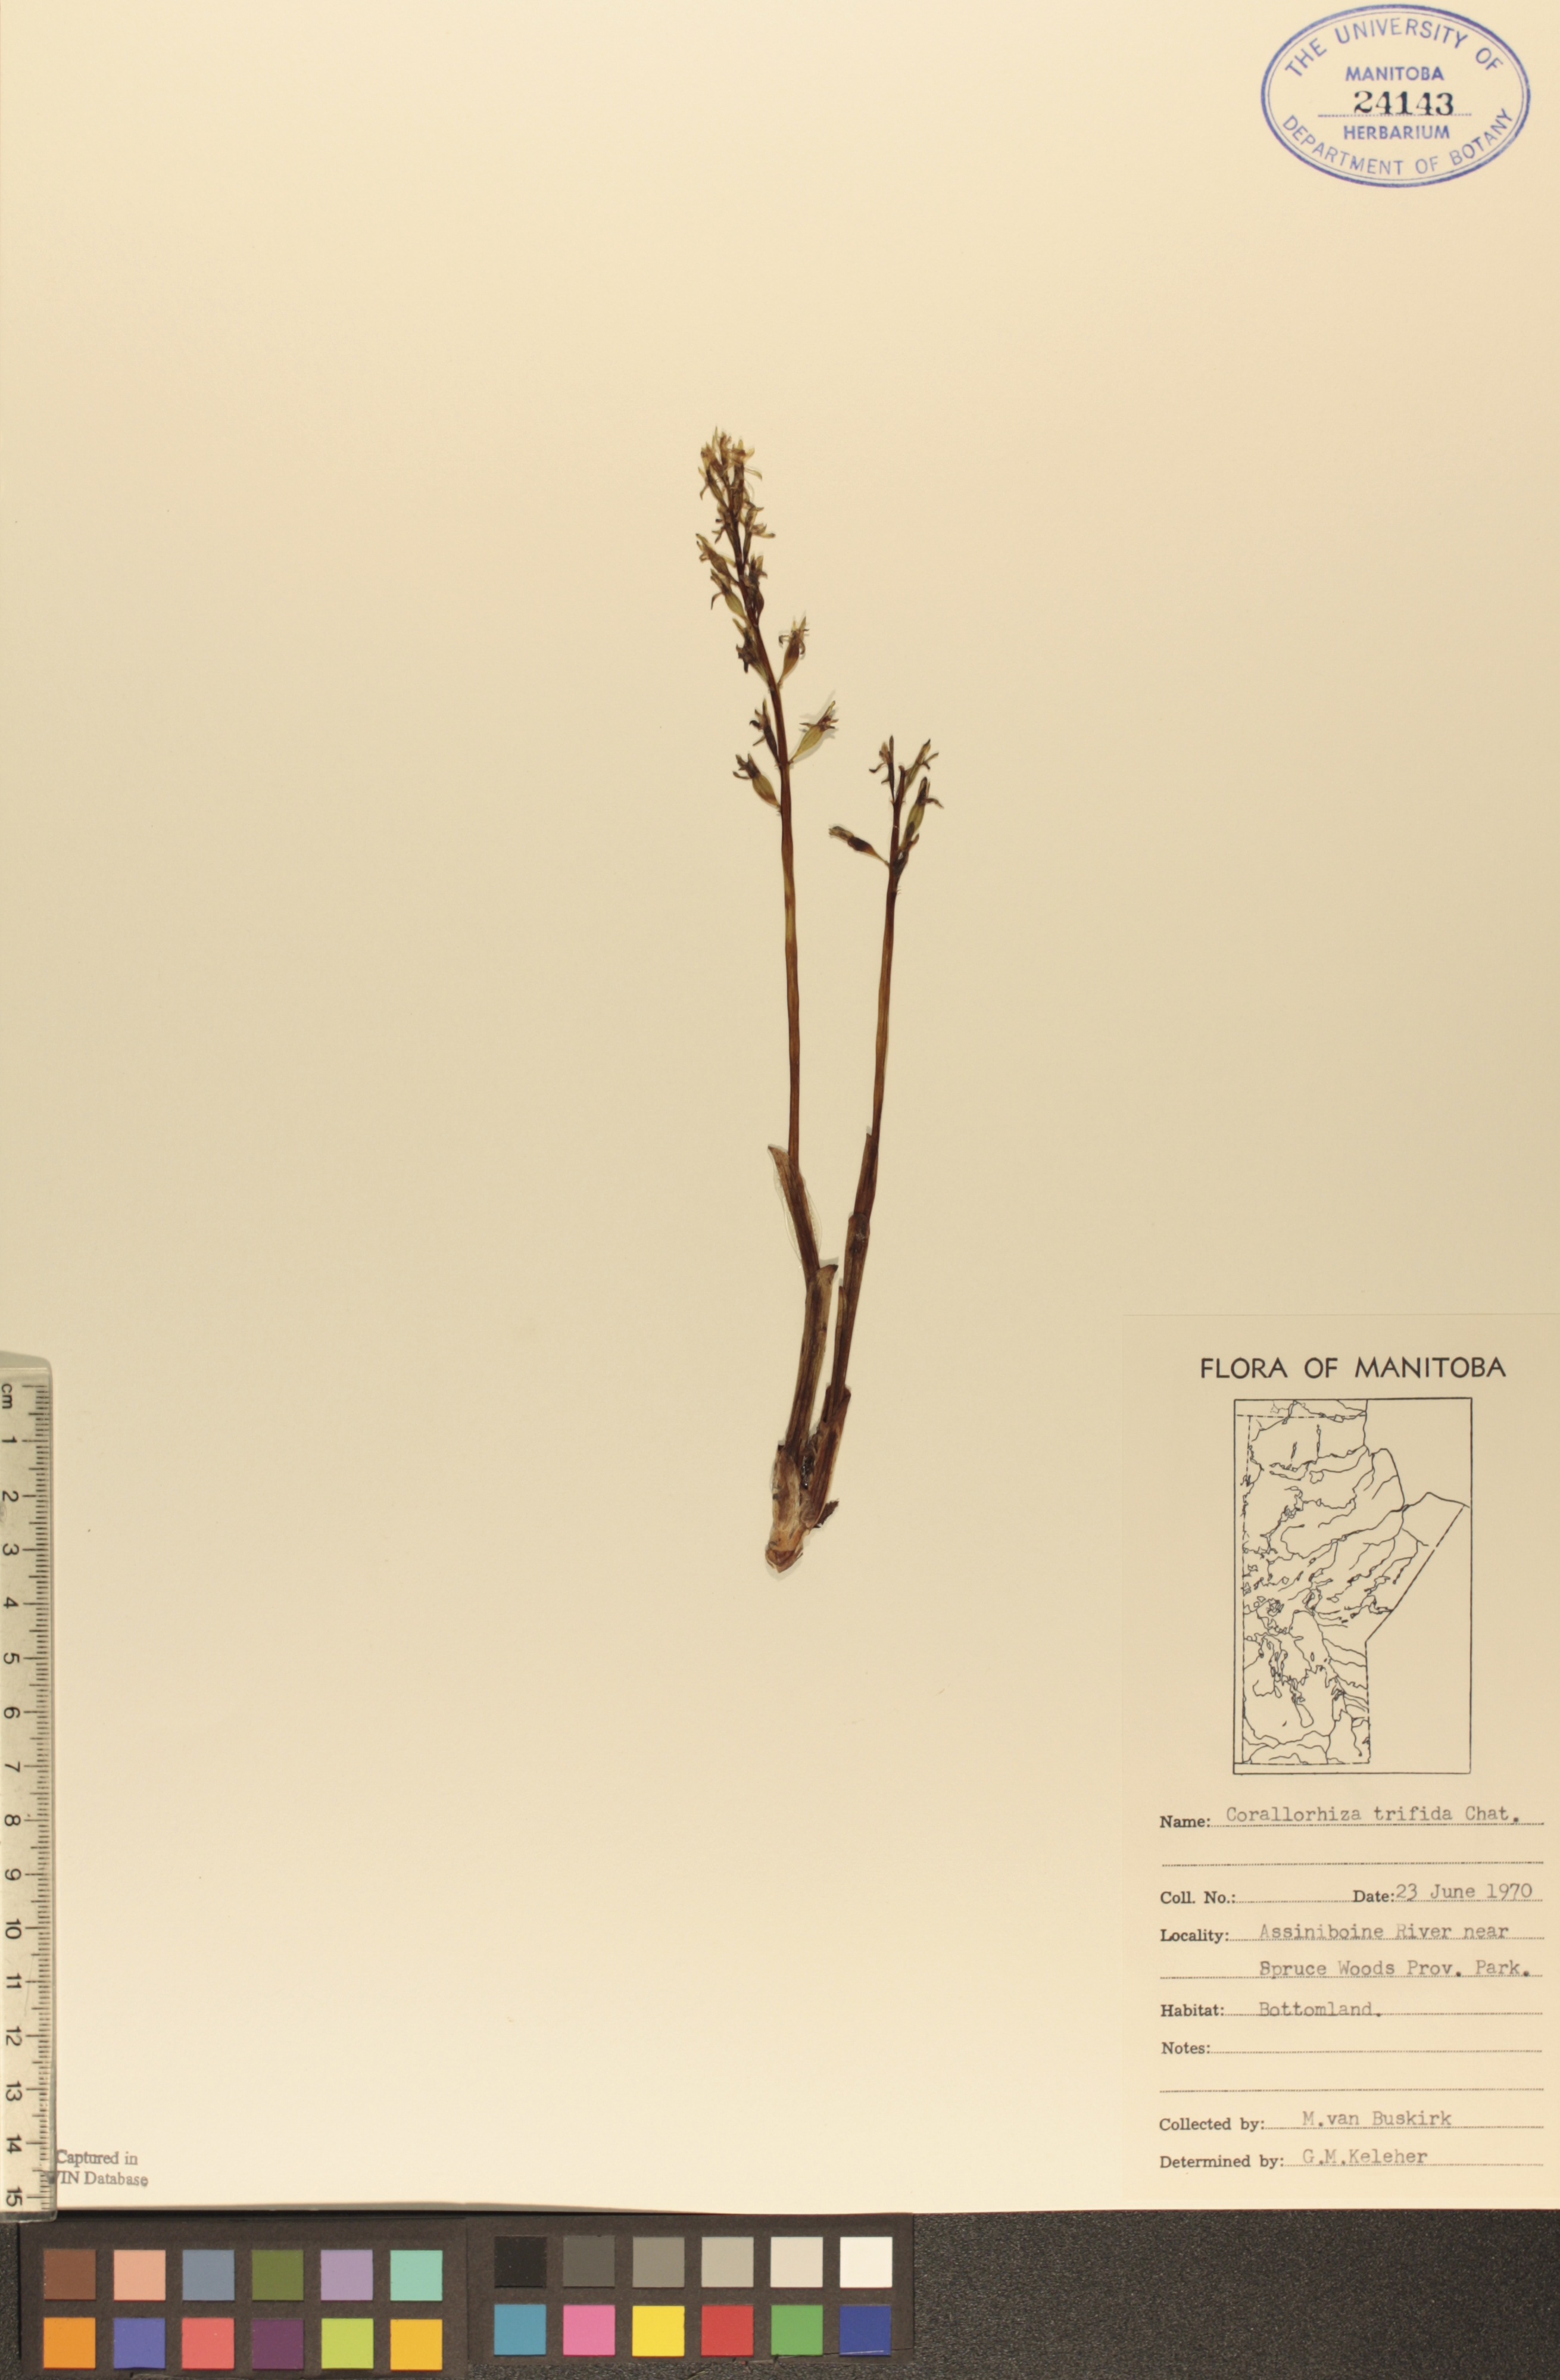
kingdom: Plantae
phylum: Tracheophyta
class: Liliopsida
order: Asparagales
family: Orchidaceae
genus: Corallorhiza
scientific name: Corallorhiza trifida
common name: Yellow coralroot
